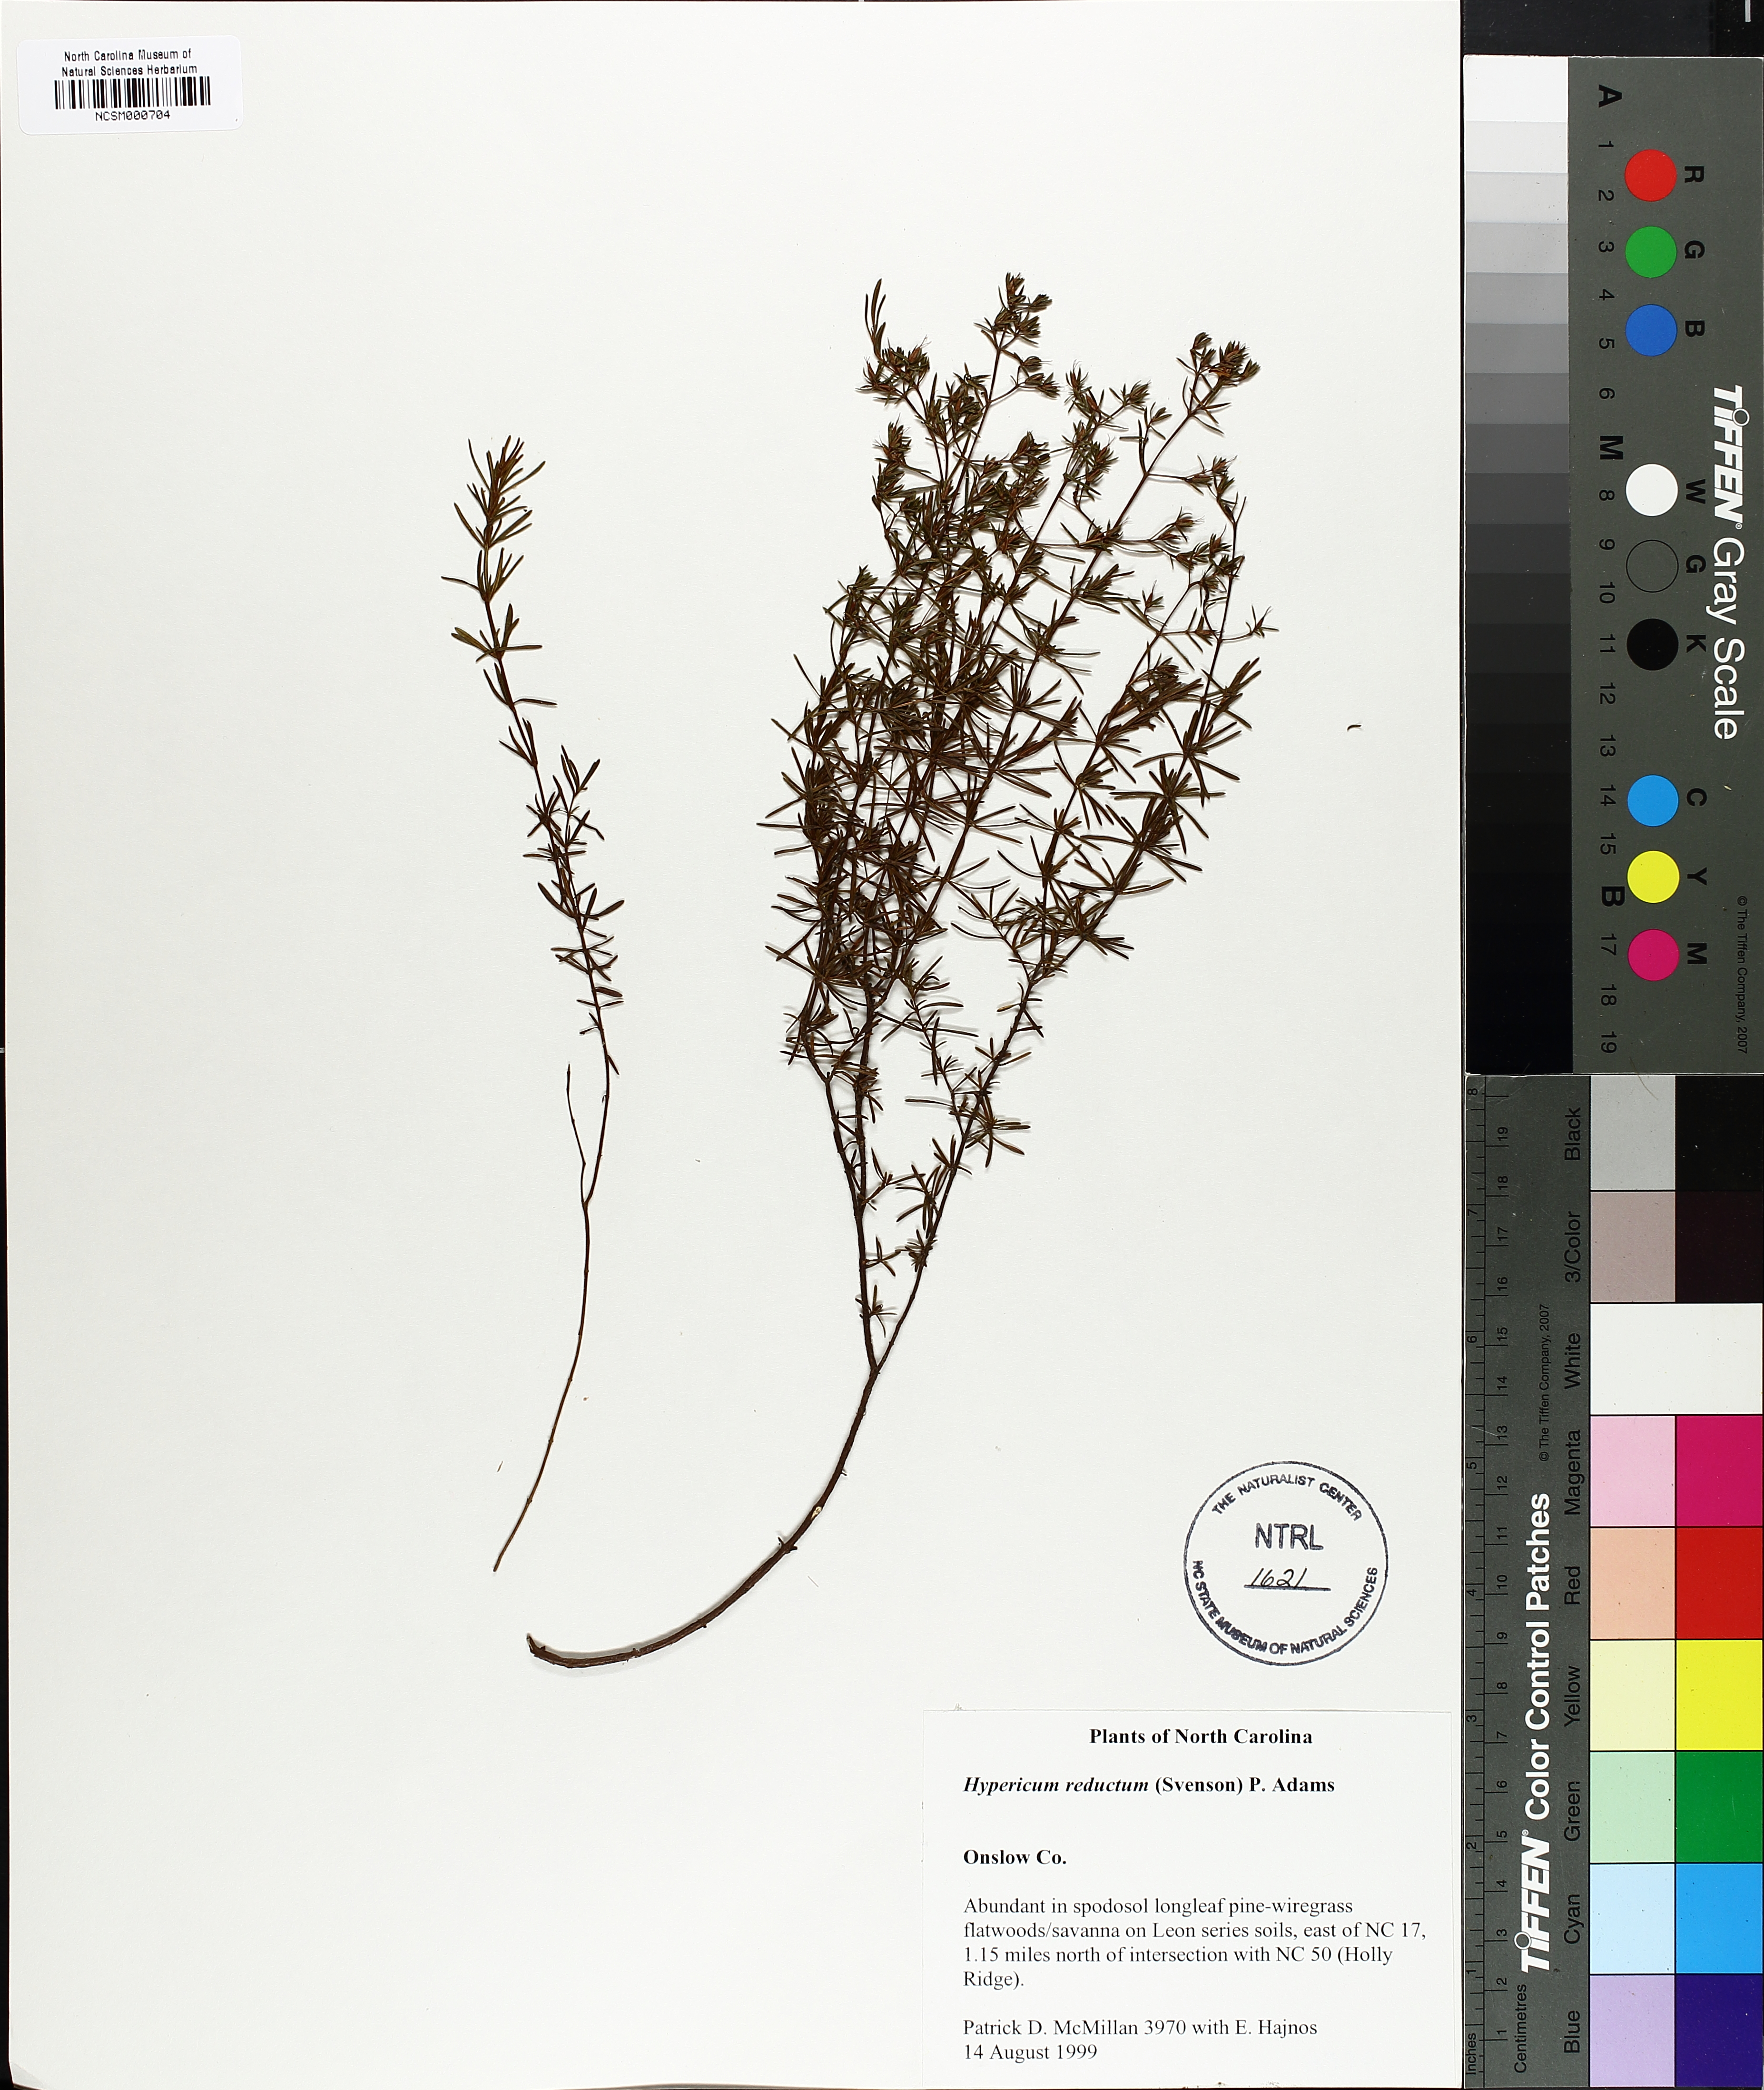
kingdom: Plantae
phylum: Tracheophyta
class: Magnoliopsida
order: Malpighiales
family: Hypericaceae
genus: Hypericum
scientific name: Hypericum tenuifolium
